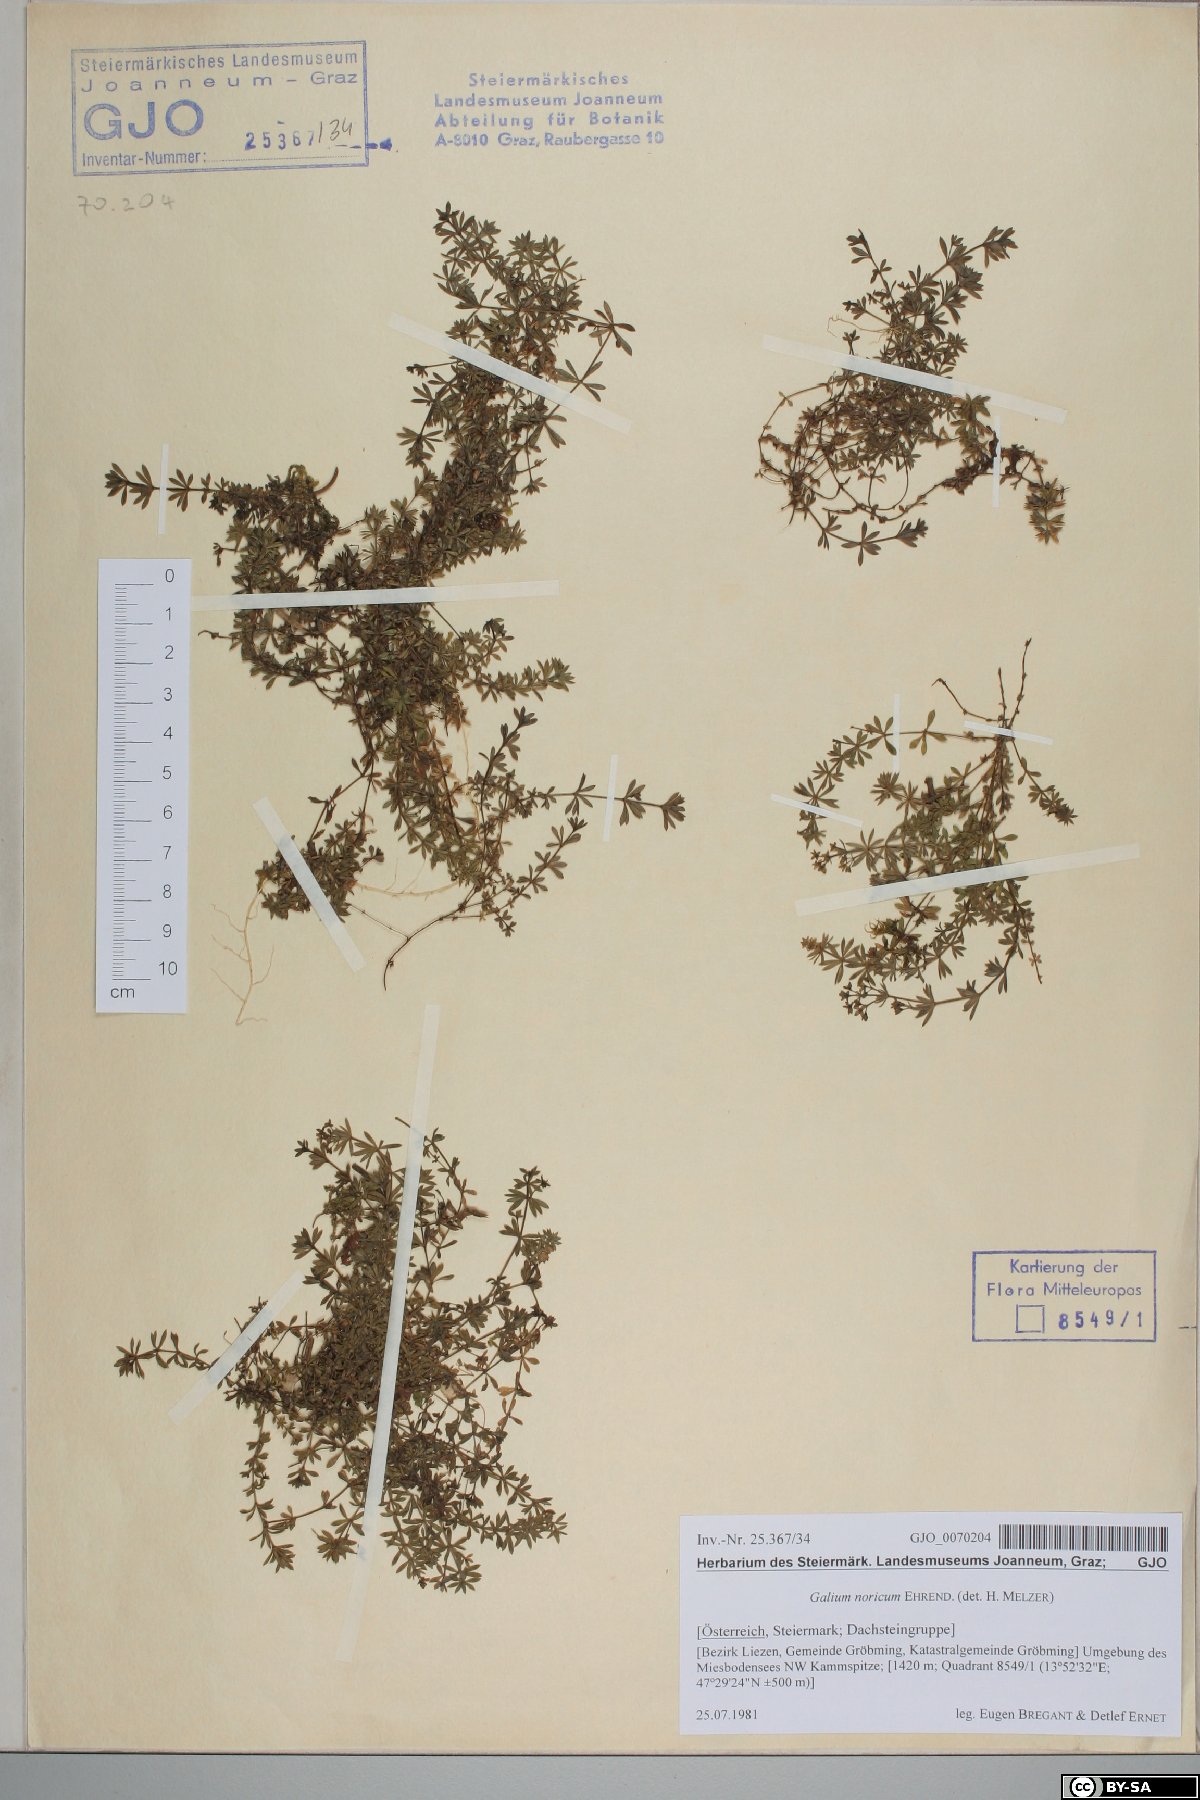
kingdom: Plantae
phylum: Tracheophyta
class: Magnoliopsida
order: Gentianales
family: Rubiaceae
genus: Galium
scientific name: Galium noricum
